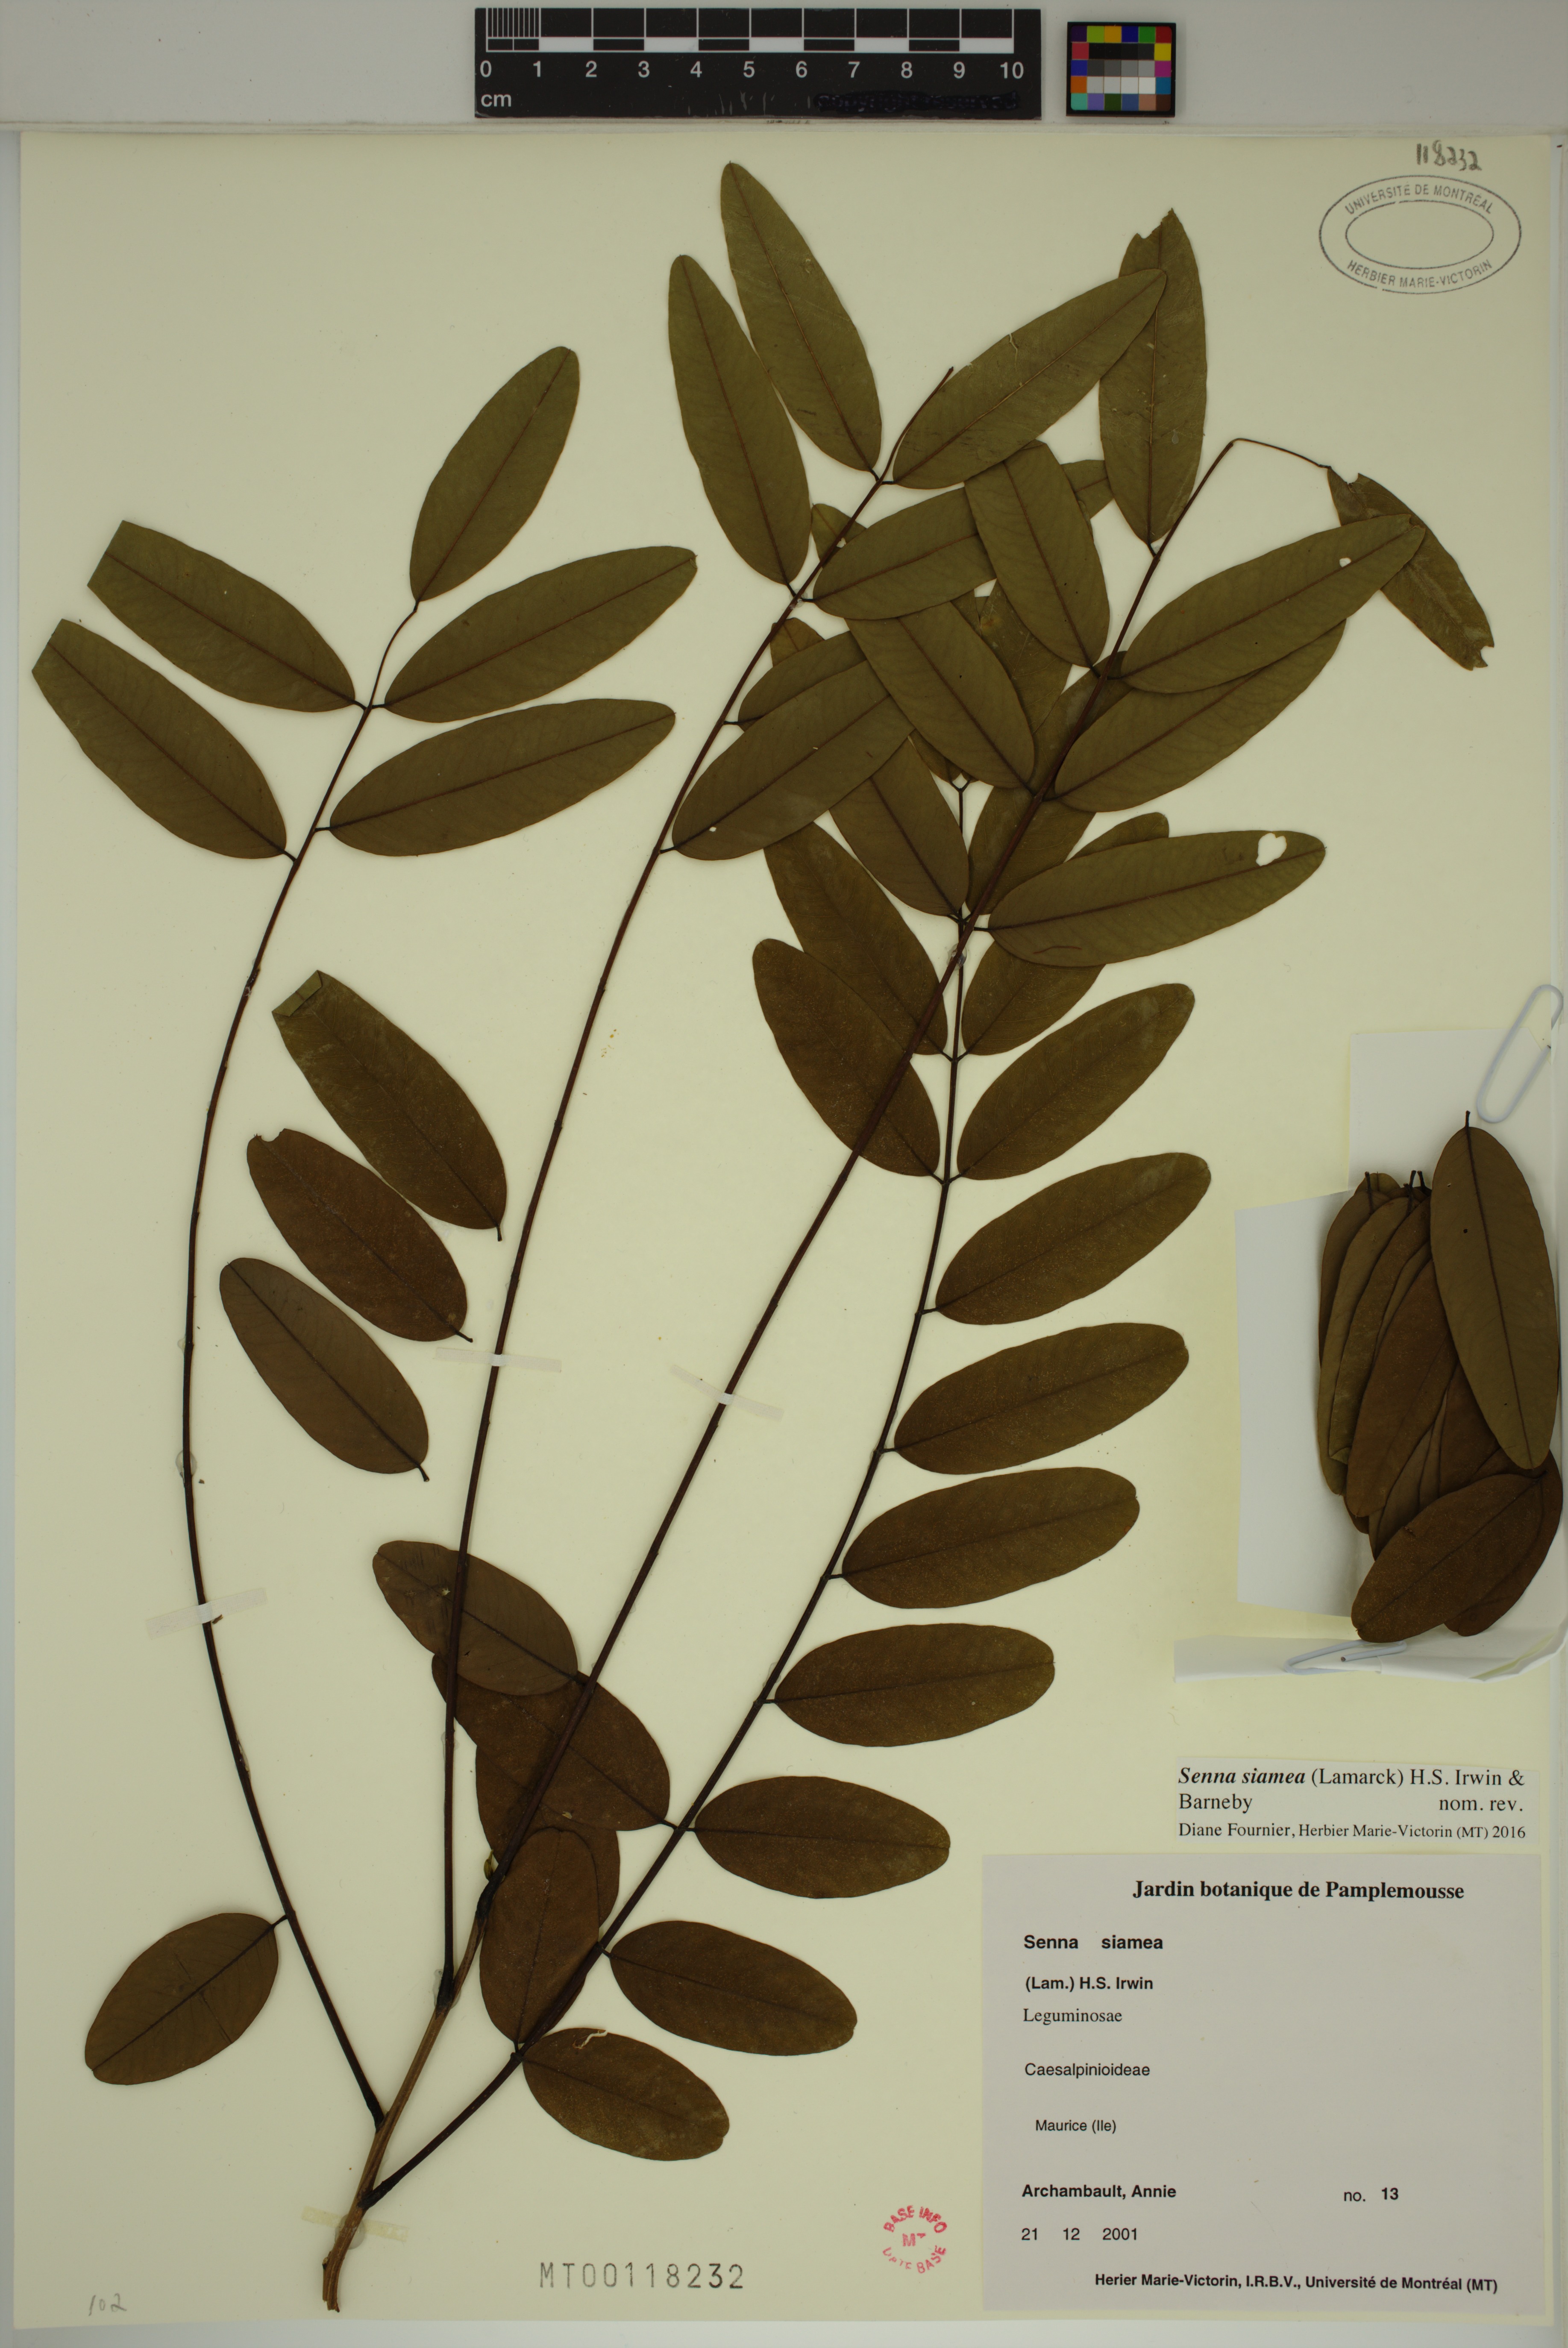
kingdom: Plantae
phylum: Tracheophyta
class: Magnoliopsida
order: Fabales
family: Fabaceae
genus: Senna
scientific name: Senna siamea
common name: Siamese cassia
